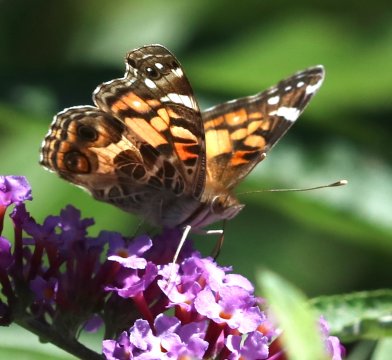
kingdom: Animalia
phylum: Arthropoda
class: Insecta
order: Lepidoptera
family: Nymphalidae
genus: Vanessa
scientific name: Vanessa virginiensis
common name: American Lady
